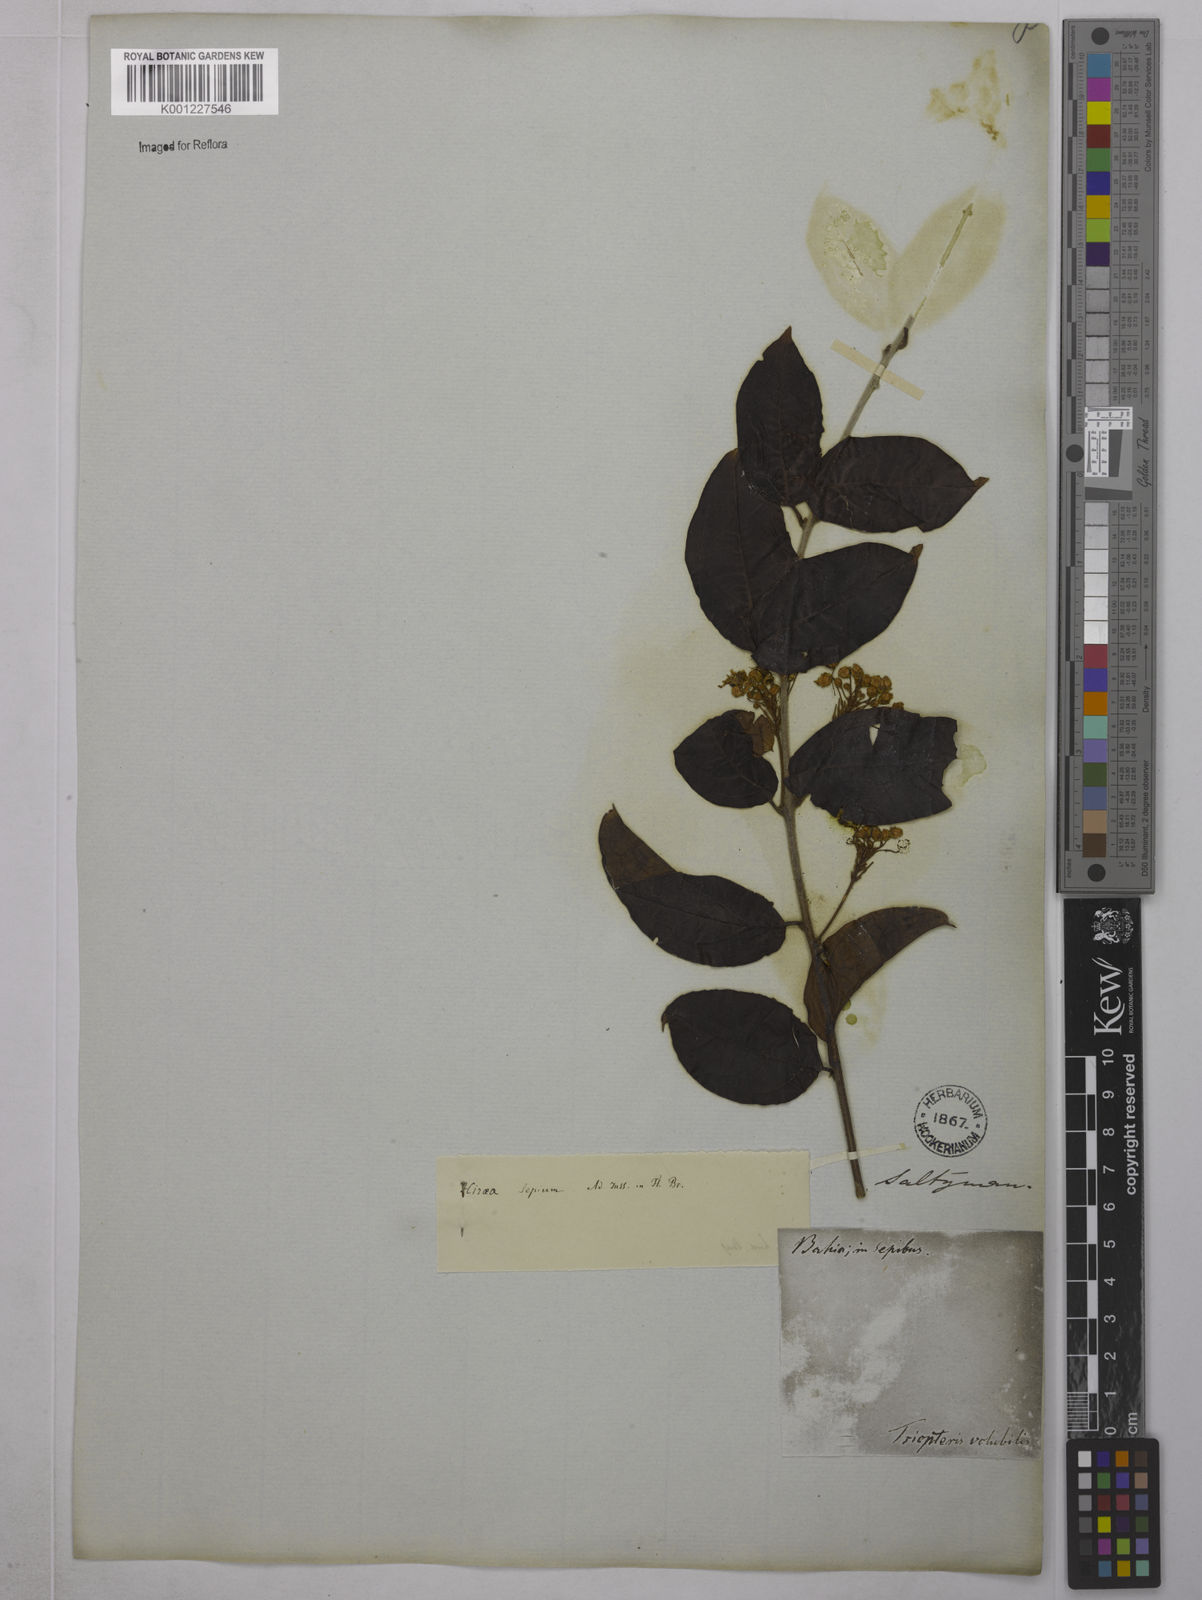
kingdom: Plantae
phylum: Tracheophyta
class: Magnoliopsida
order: Malpighiales
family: Malpighiaceae
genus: Mascagnia
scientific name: Mascagnia sepium
